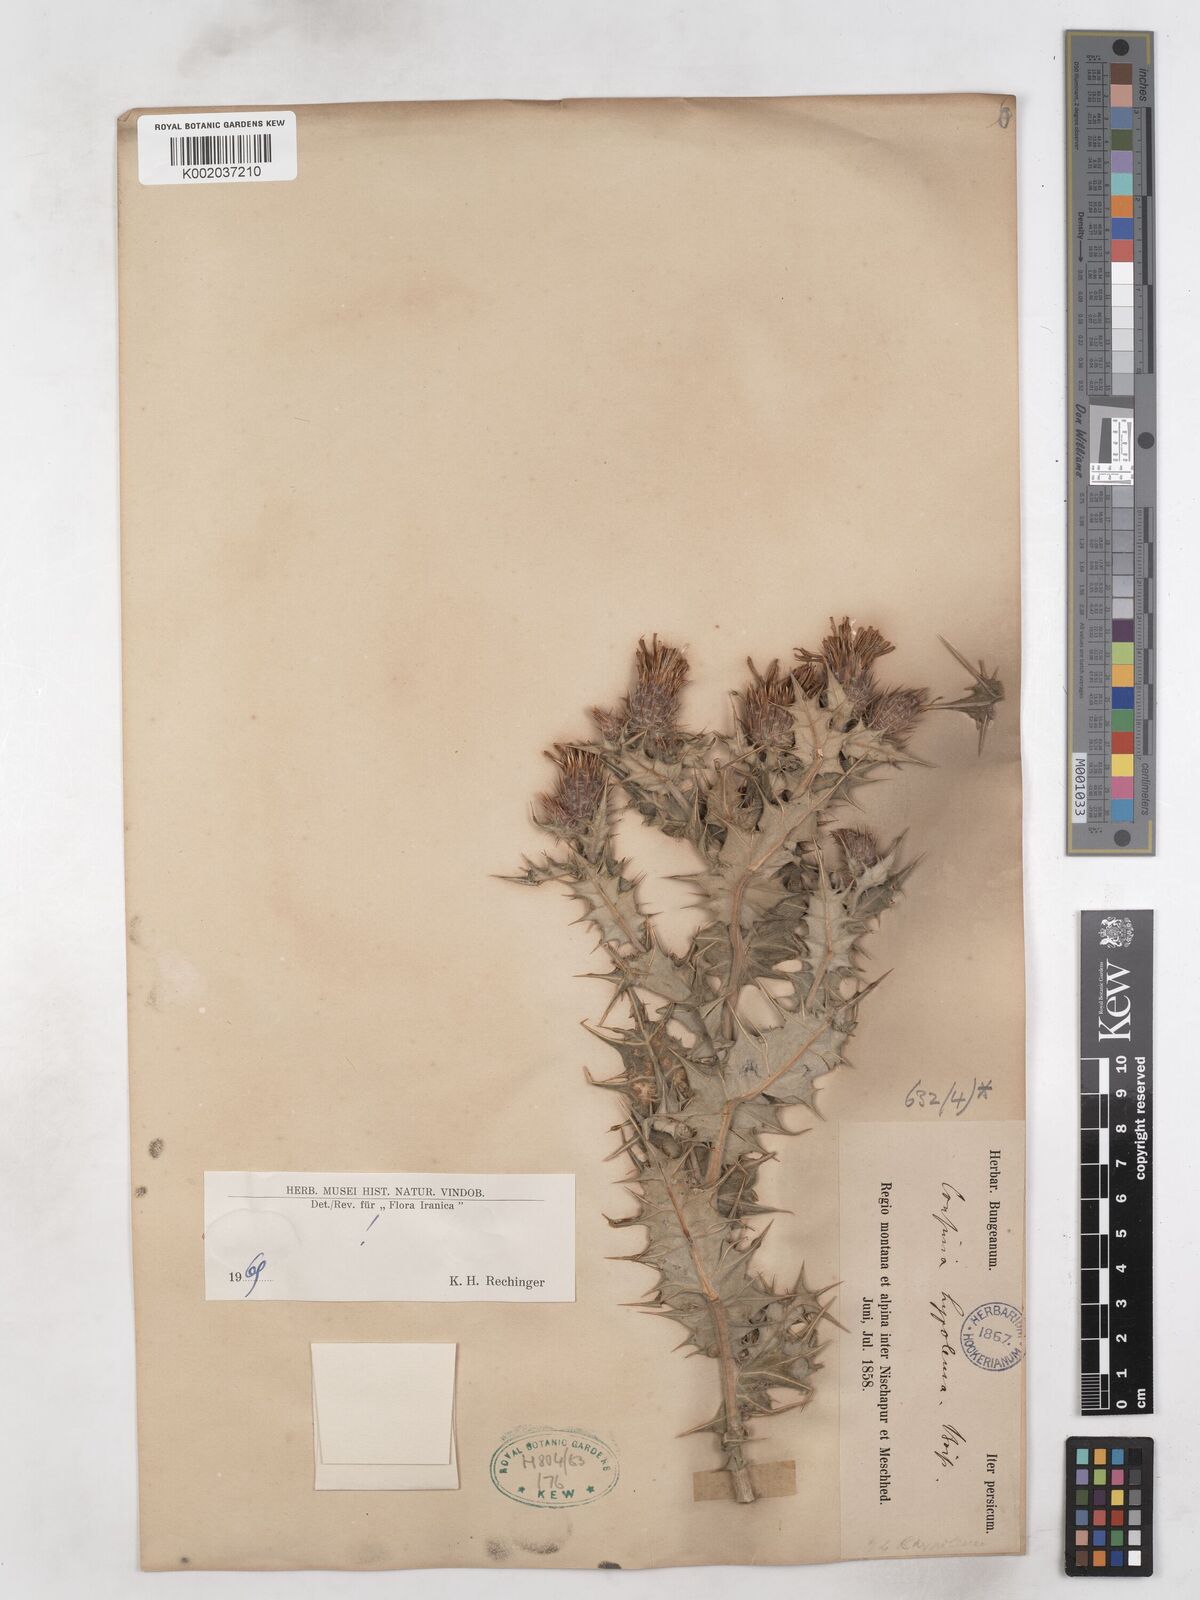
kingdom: Plantae
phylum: Tracheophyta
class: Magnoliopsida
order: Asterales
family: Asteraceae
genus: Cousinia
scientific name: Cousinia hypoleuca
